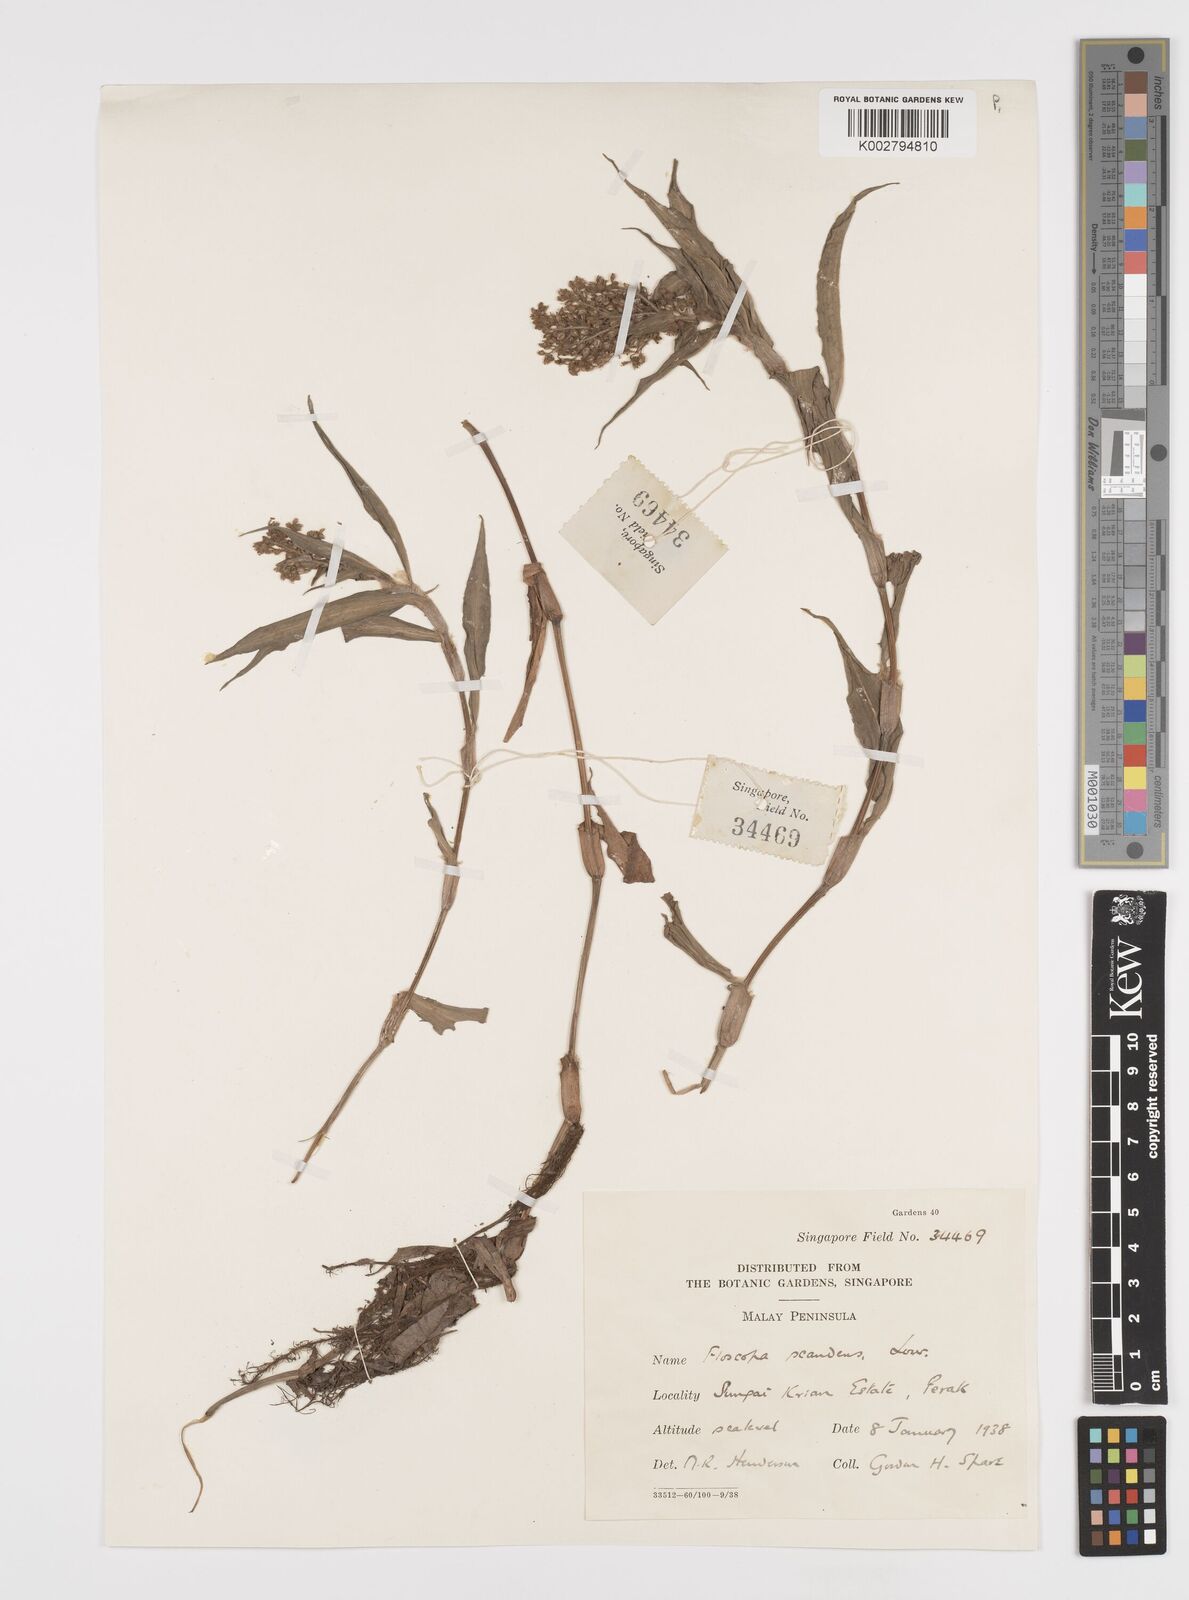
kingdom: Plantae
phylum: Tracheophyta
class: Liliopsida
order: Commelinales
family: Commelinaceae
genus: Floscopa
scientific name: Floscopa scandens
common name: Climbing flower cup
